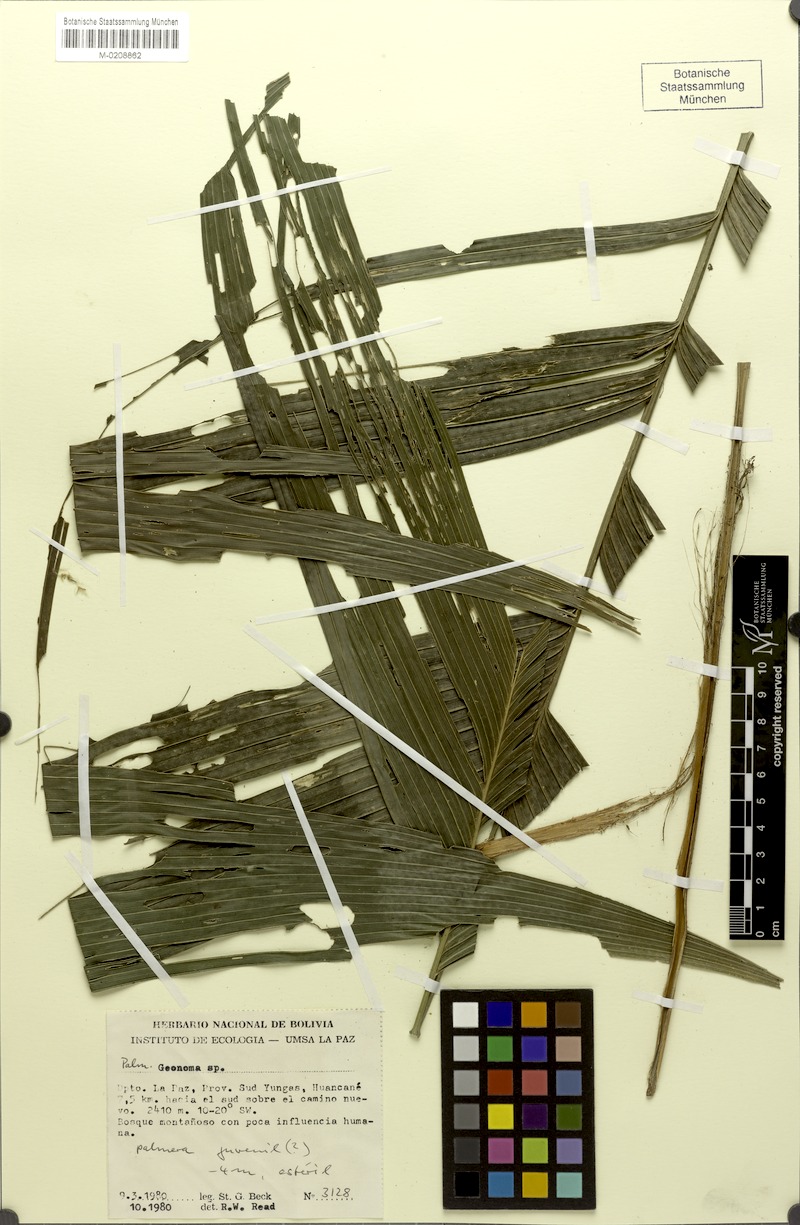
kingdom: Plantae
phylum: Tracheophyta
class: Liliopsida
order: Arecales
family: Arecaceae
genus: Geonoma
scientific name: Geonoma
